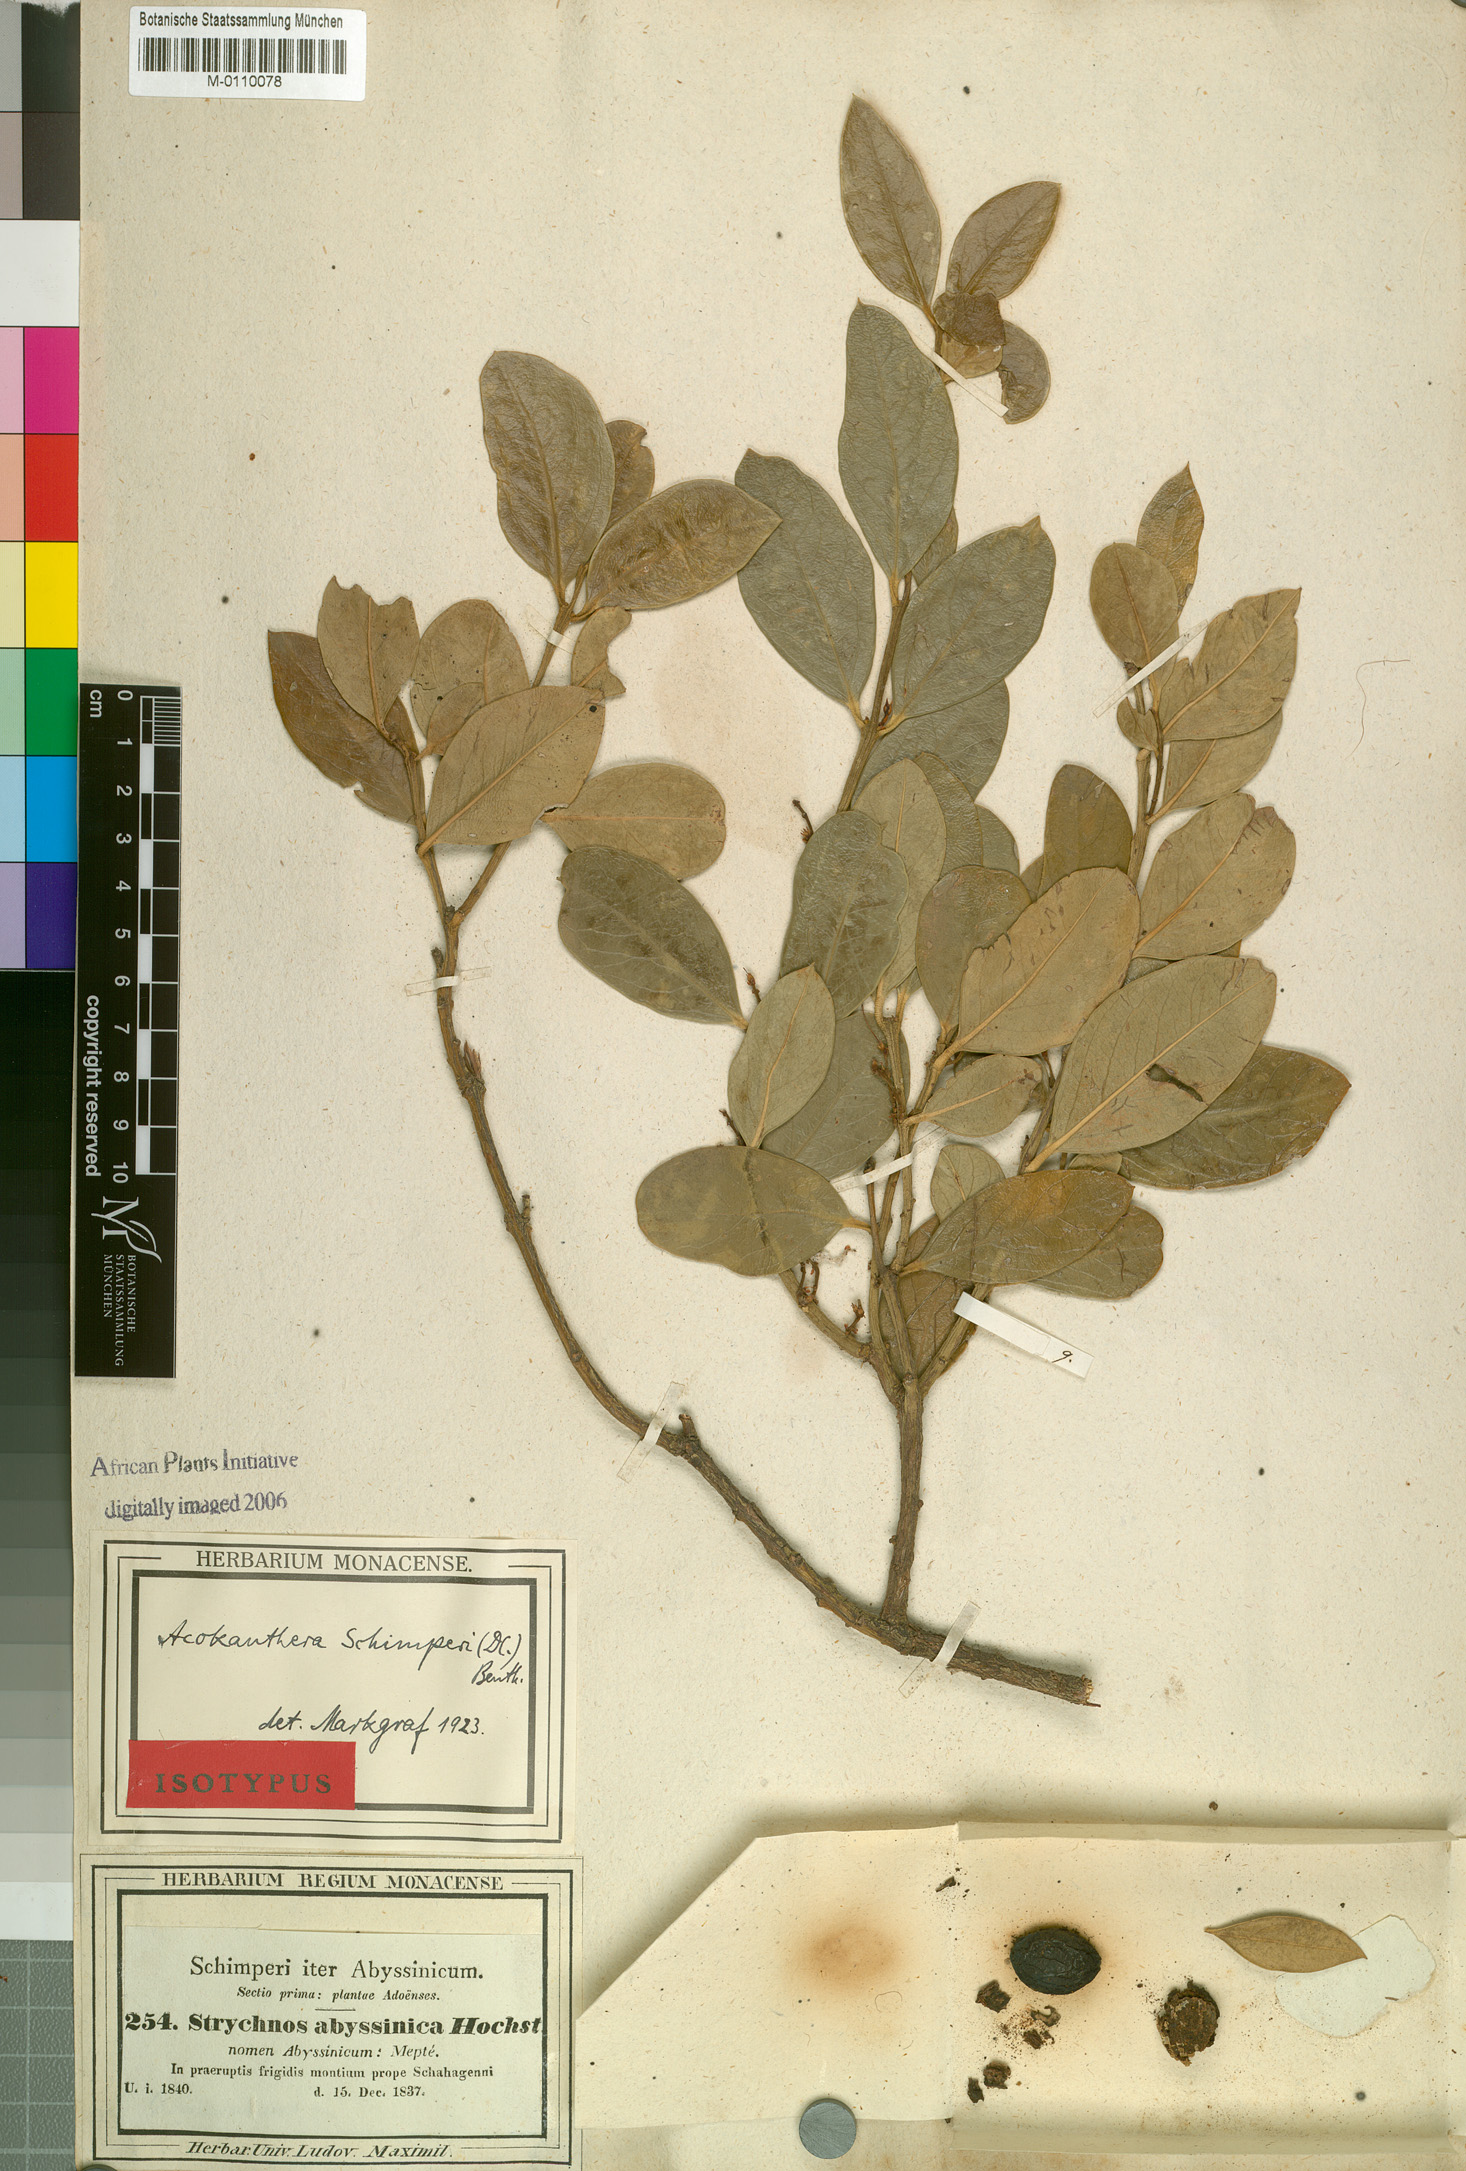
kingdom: Plantae
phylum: Tracheophyta
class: Magnoliopsida
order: Gentianales
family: Apocynaceae
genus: Acokanthera
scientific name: Acokanthera schimperi
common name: Arrow-poison-tree
